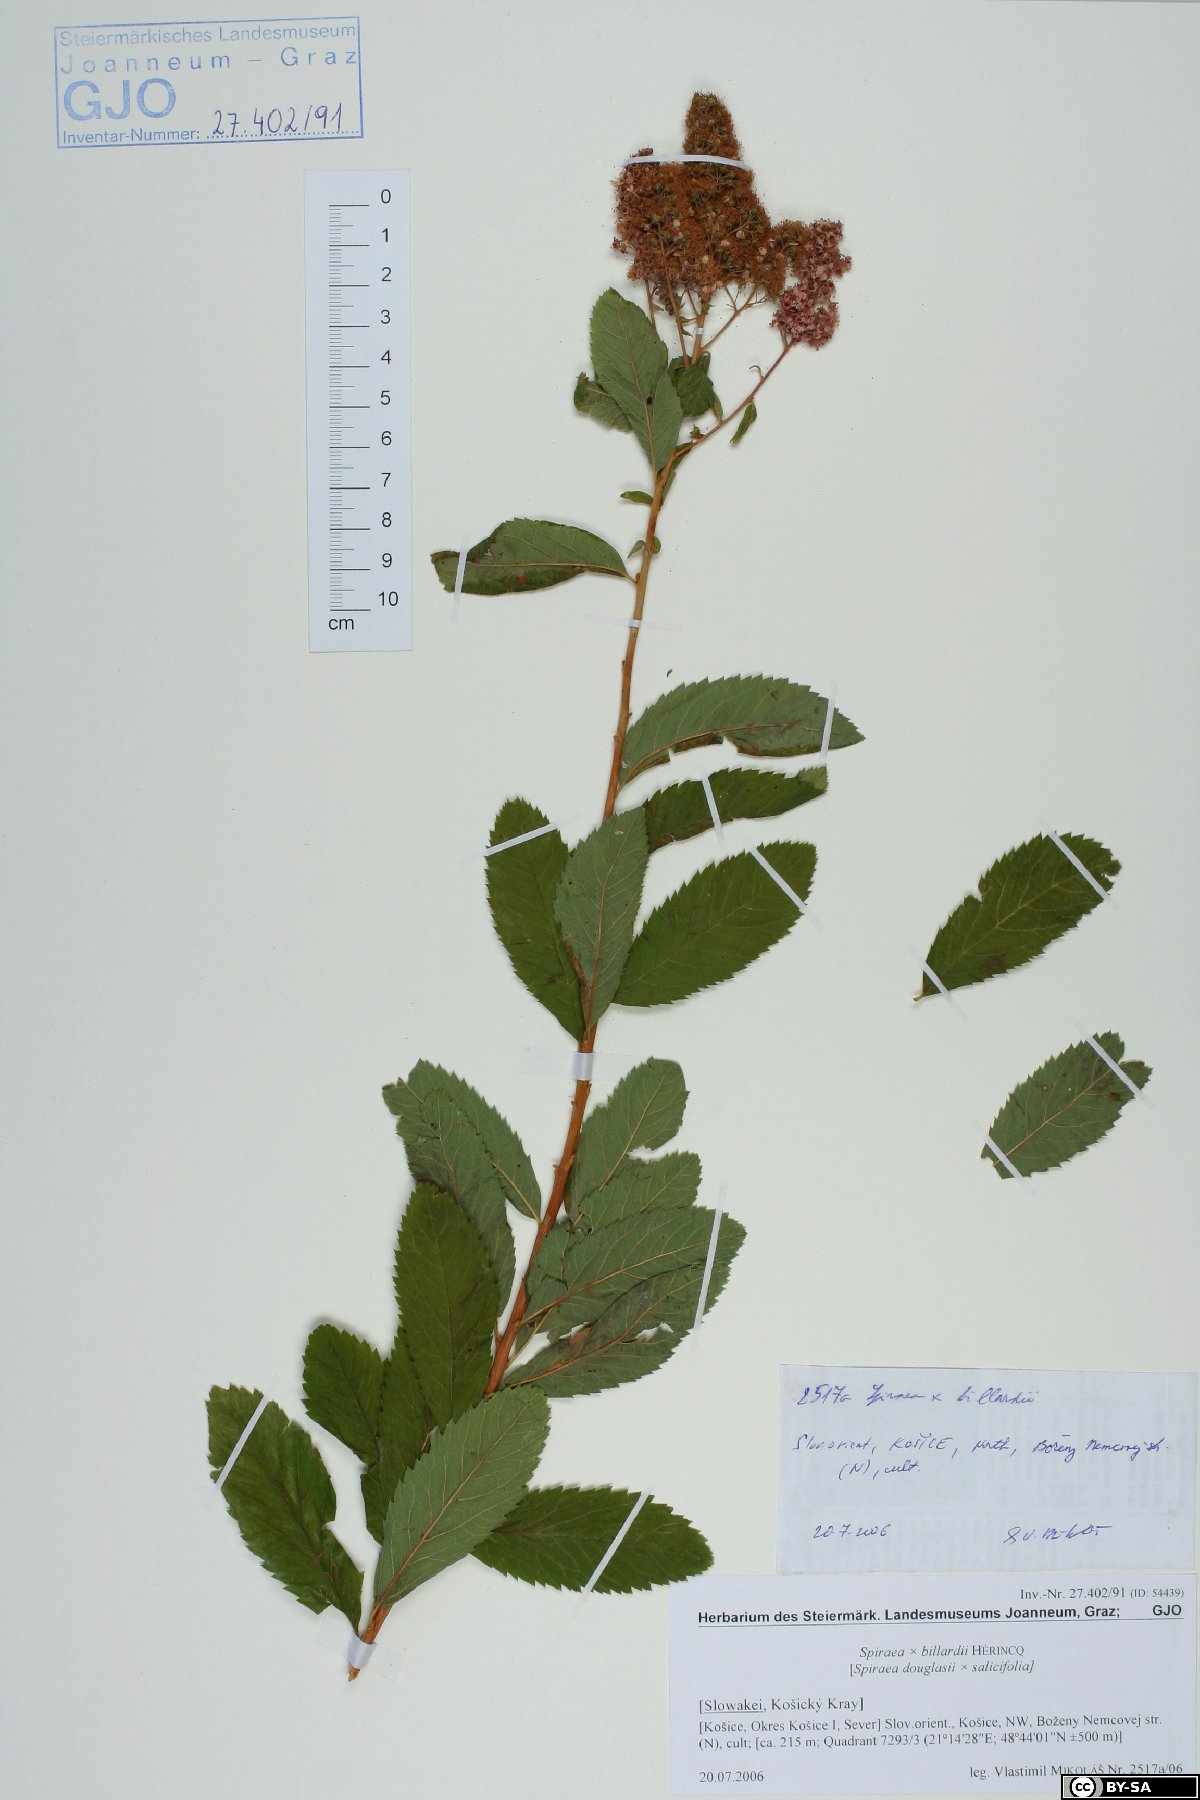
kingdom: Plantae
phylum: Tracheophyta
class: Magnoliopsida
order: Rosales
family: Rosaceae
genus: Spiraea
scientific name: Spiraea billardii
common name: Billard's bridewort
